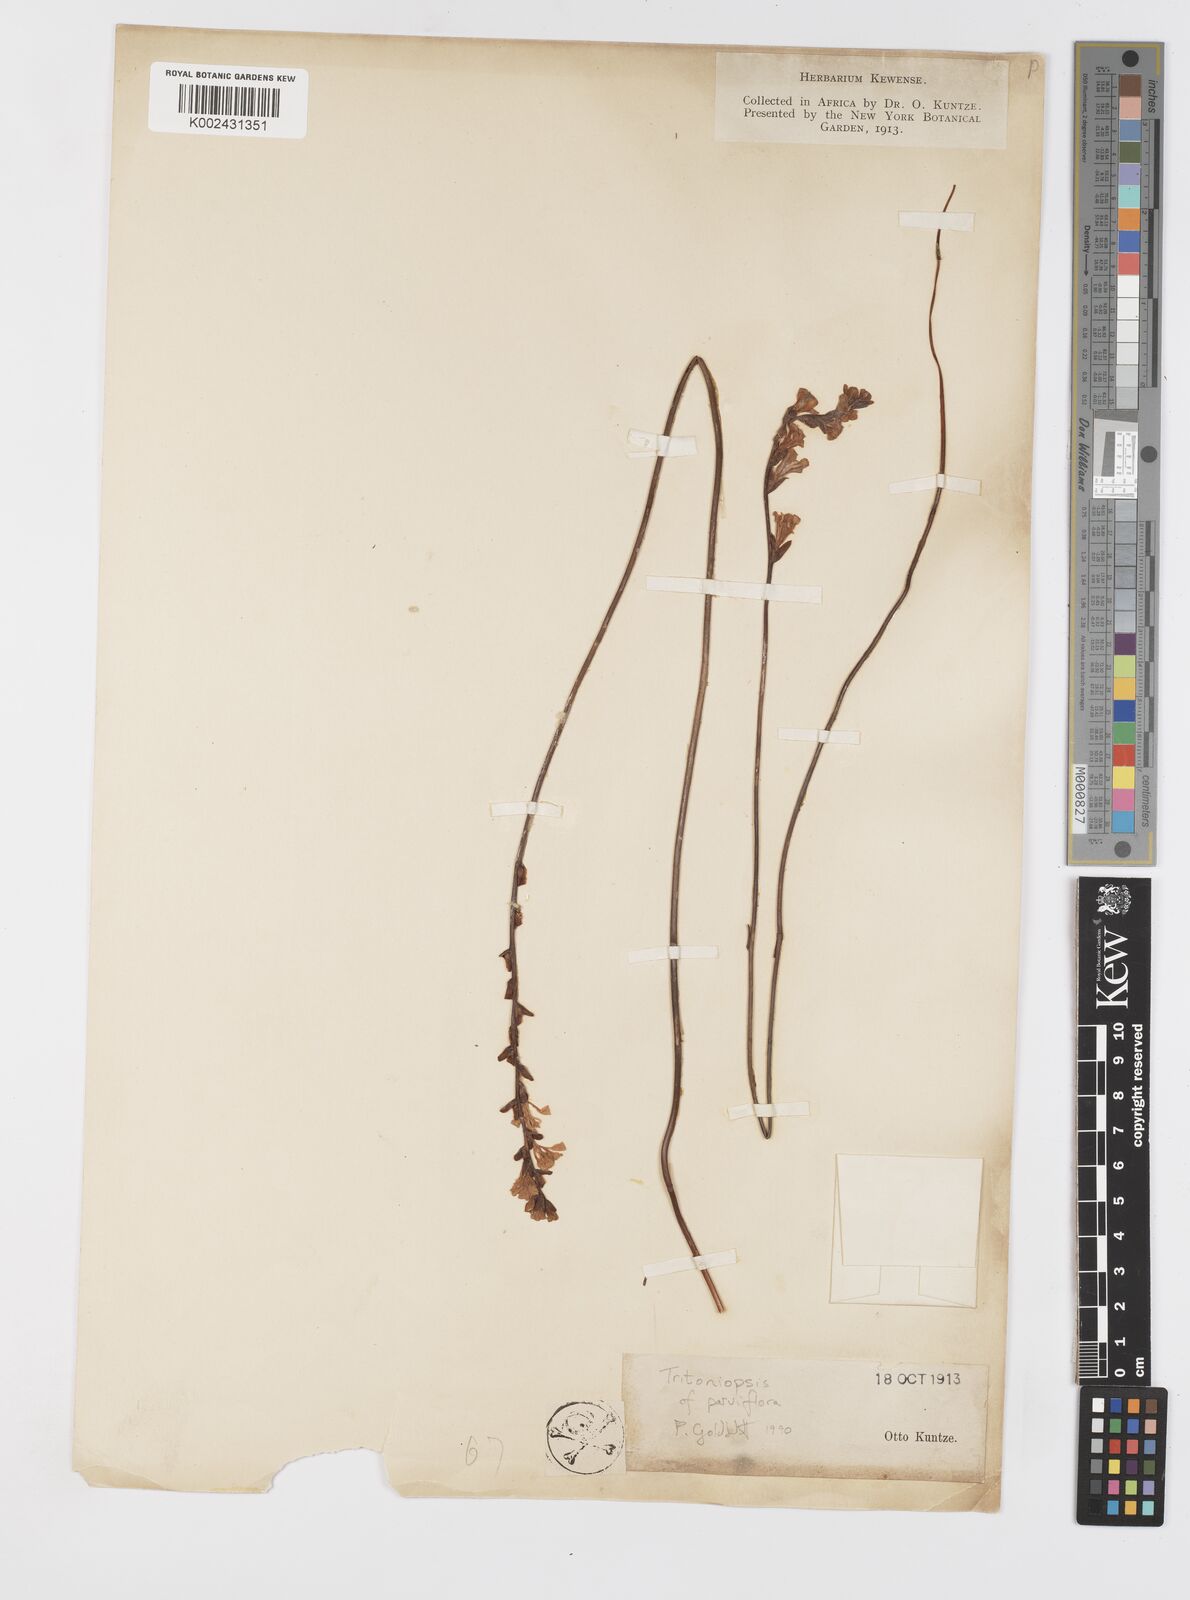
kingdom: Plantae
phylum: Tracheophyta
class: Liliopsida
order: Asparagales
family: Iridaceae
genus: Tritoniopsis
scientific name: Tritoniopsis parviflora
